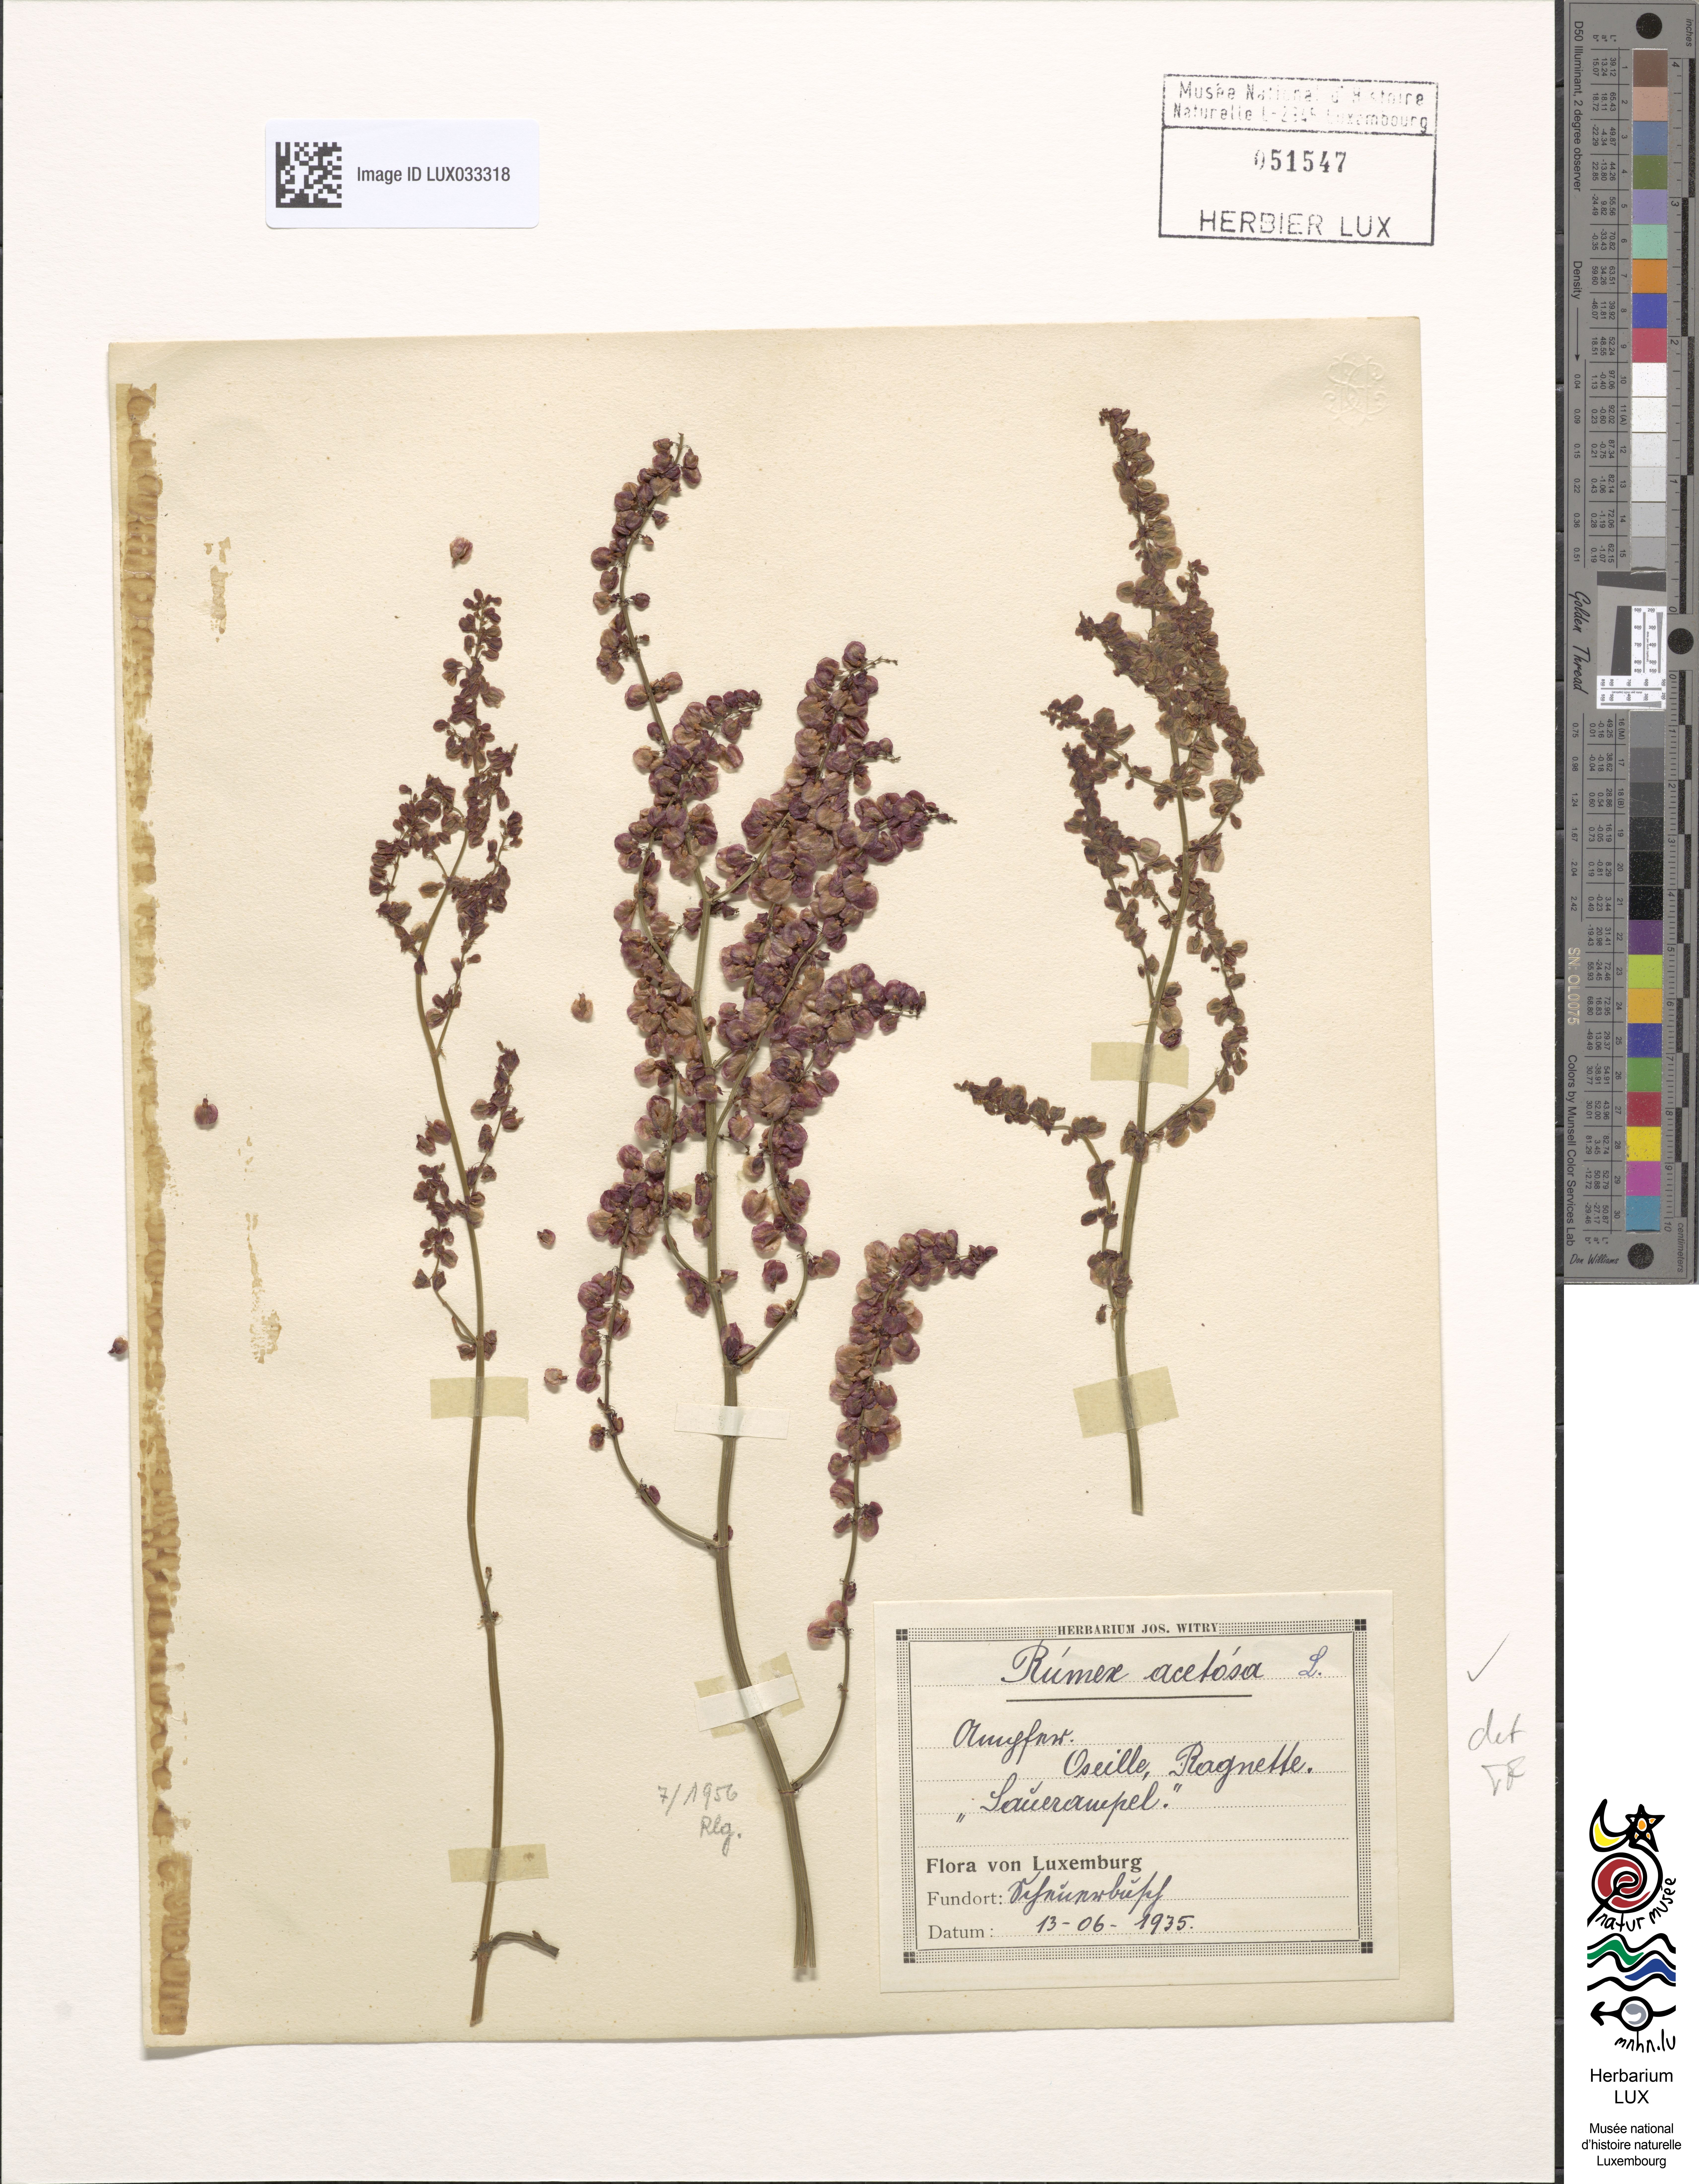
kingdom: Plantae
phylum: Tracheophyta
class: Magnoliopsida
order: Caryophyllales
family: Polygonaceae
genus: Rumex
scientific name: Rumex acetosa
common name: Garden sorrel
